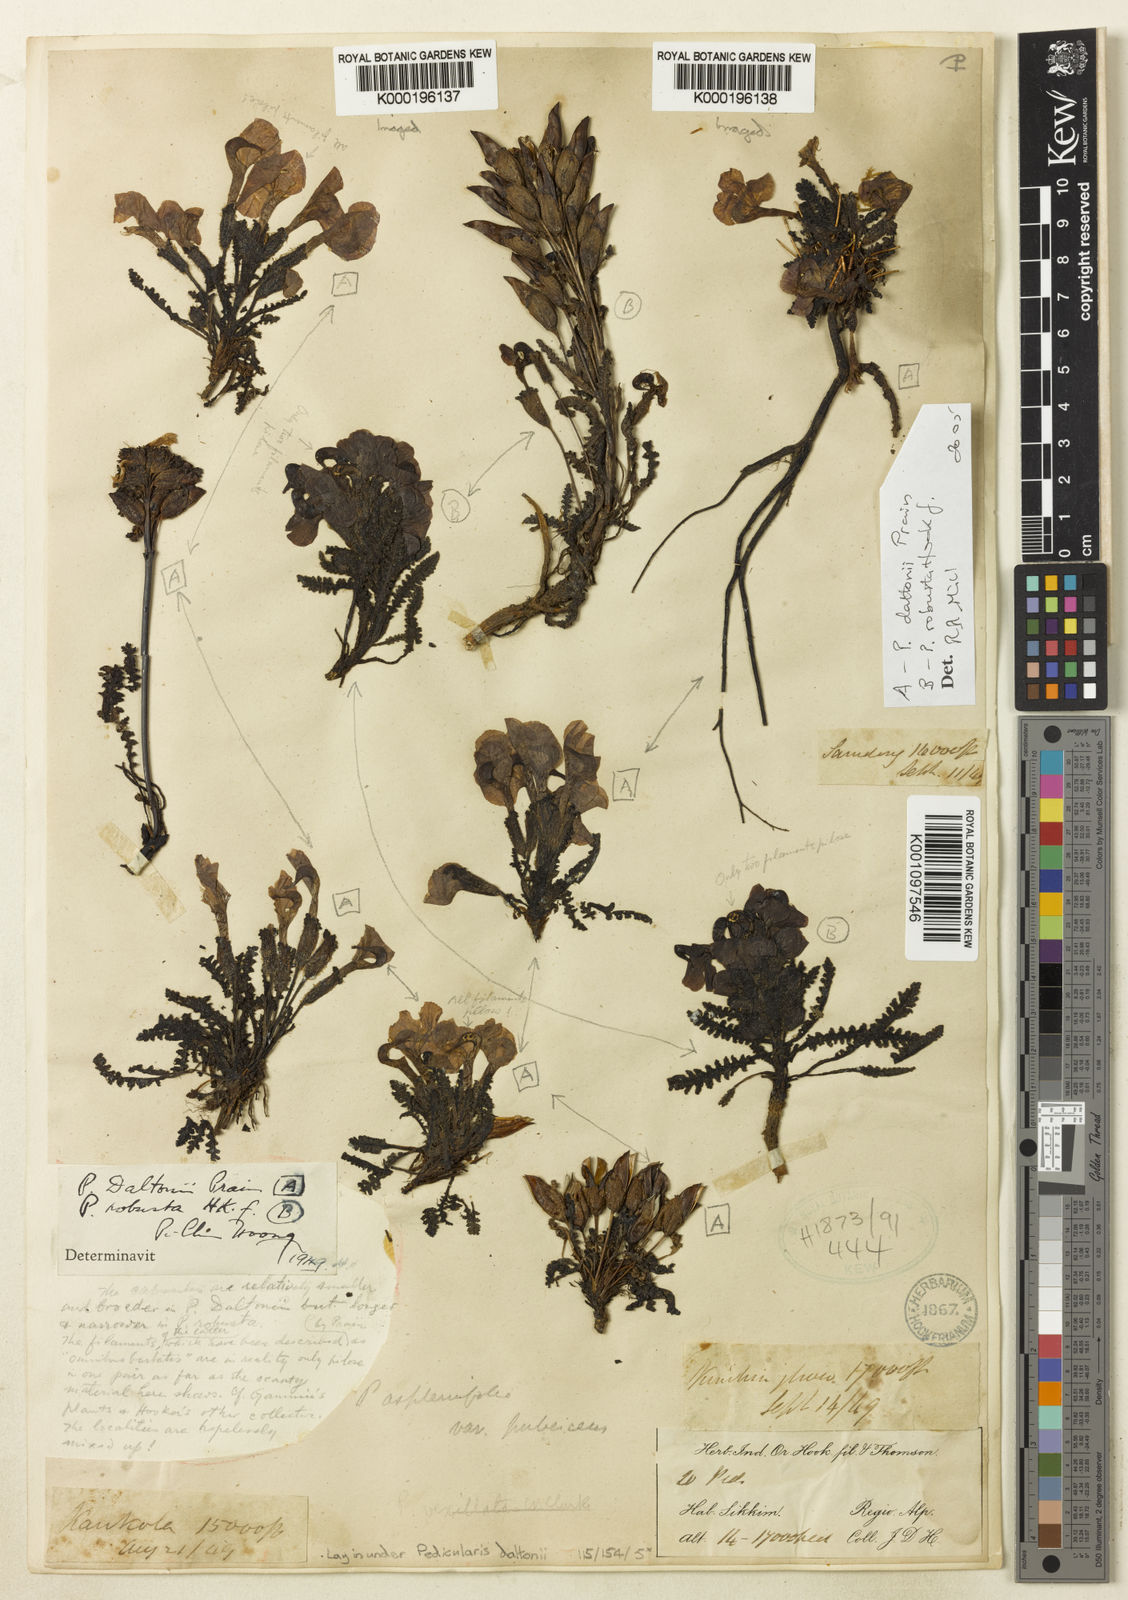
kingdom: Plantae
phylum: Tracheophyta
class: Magnoliopsida
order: Lamiales
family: Orobanchaceae
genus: Pedicularis
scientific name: Pedicularis daltonii
